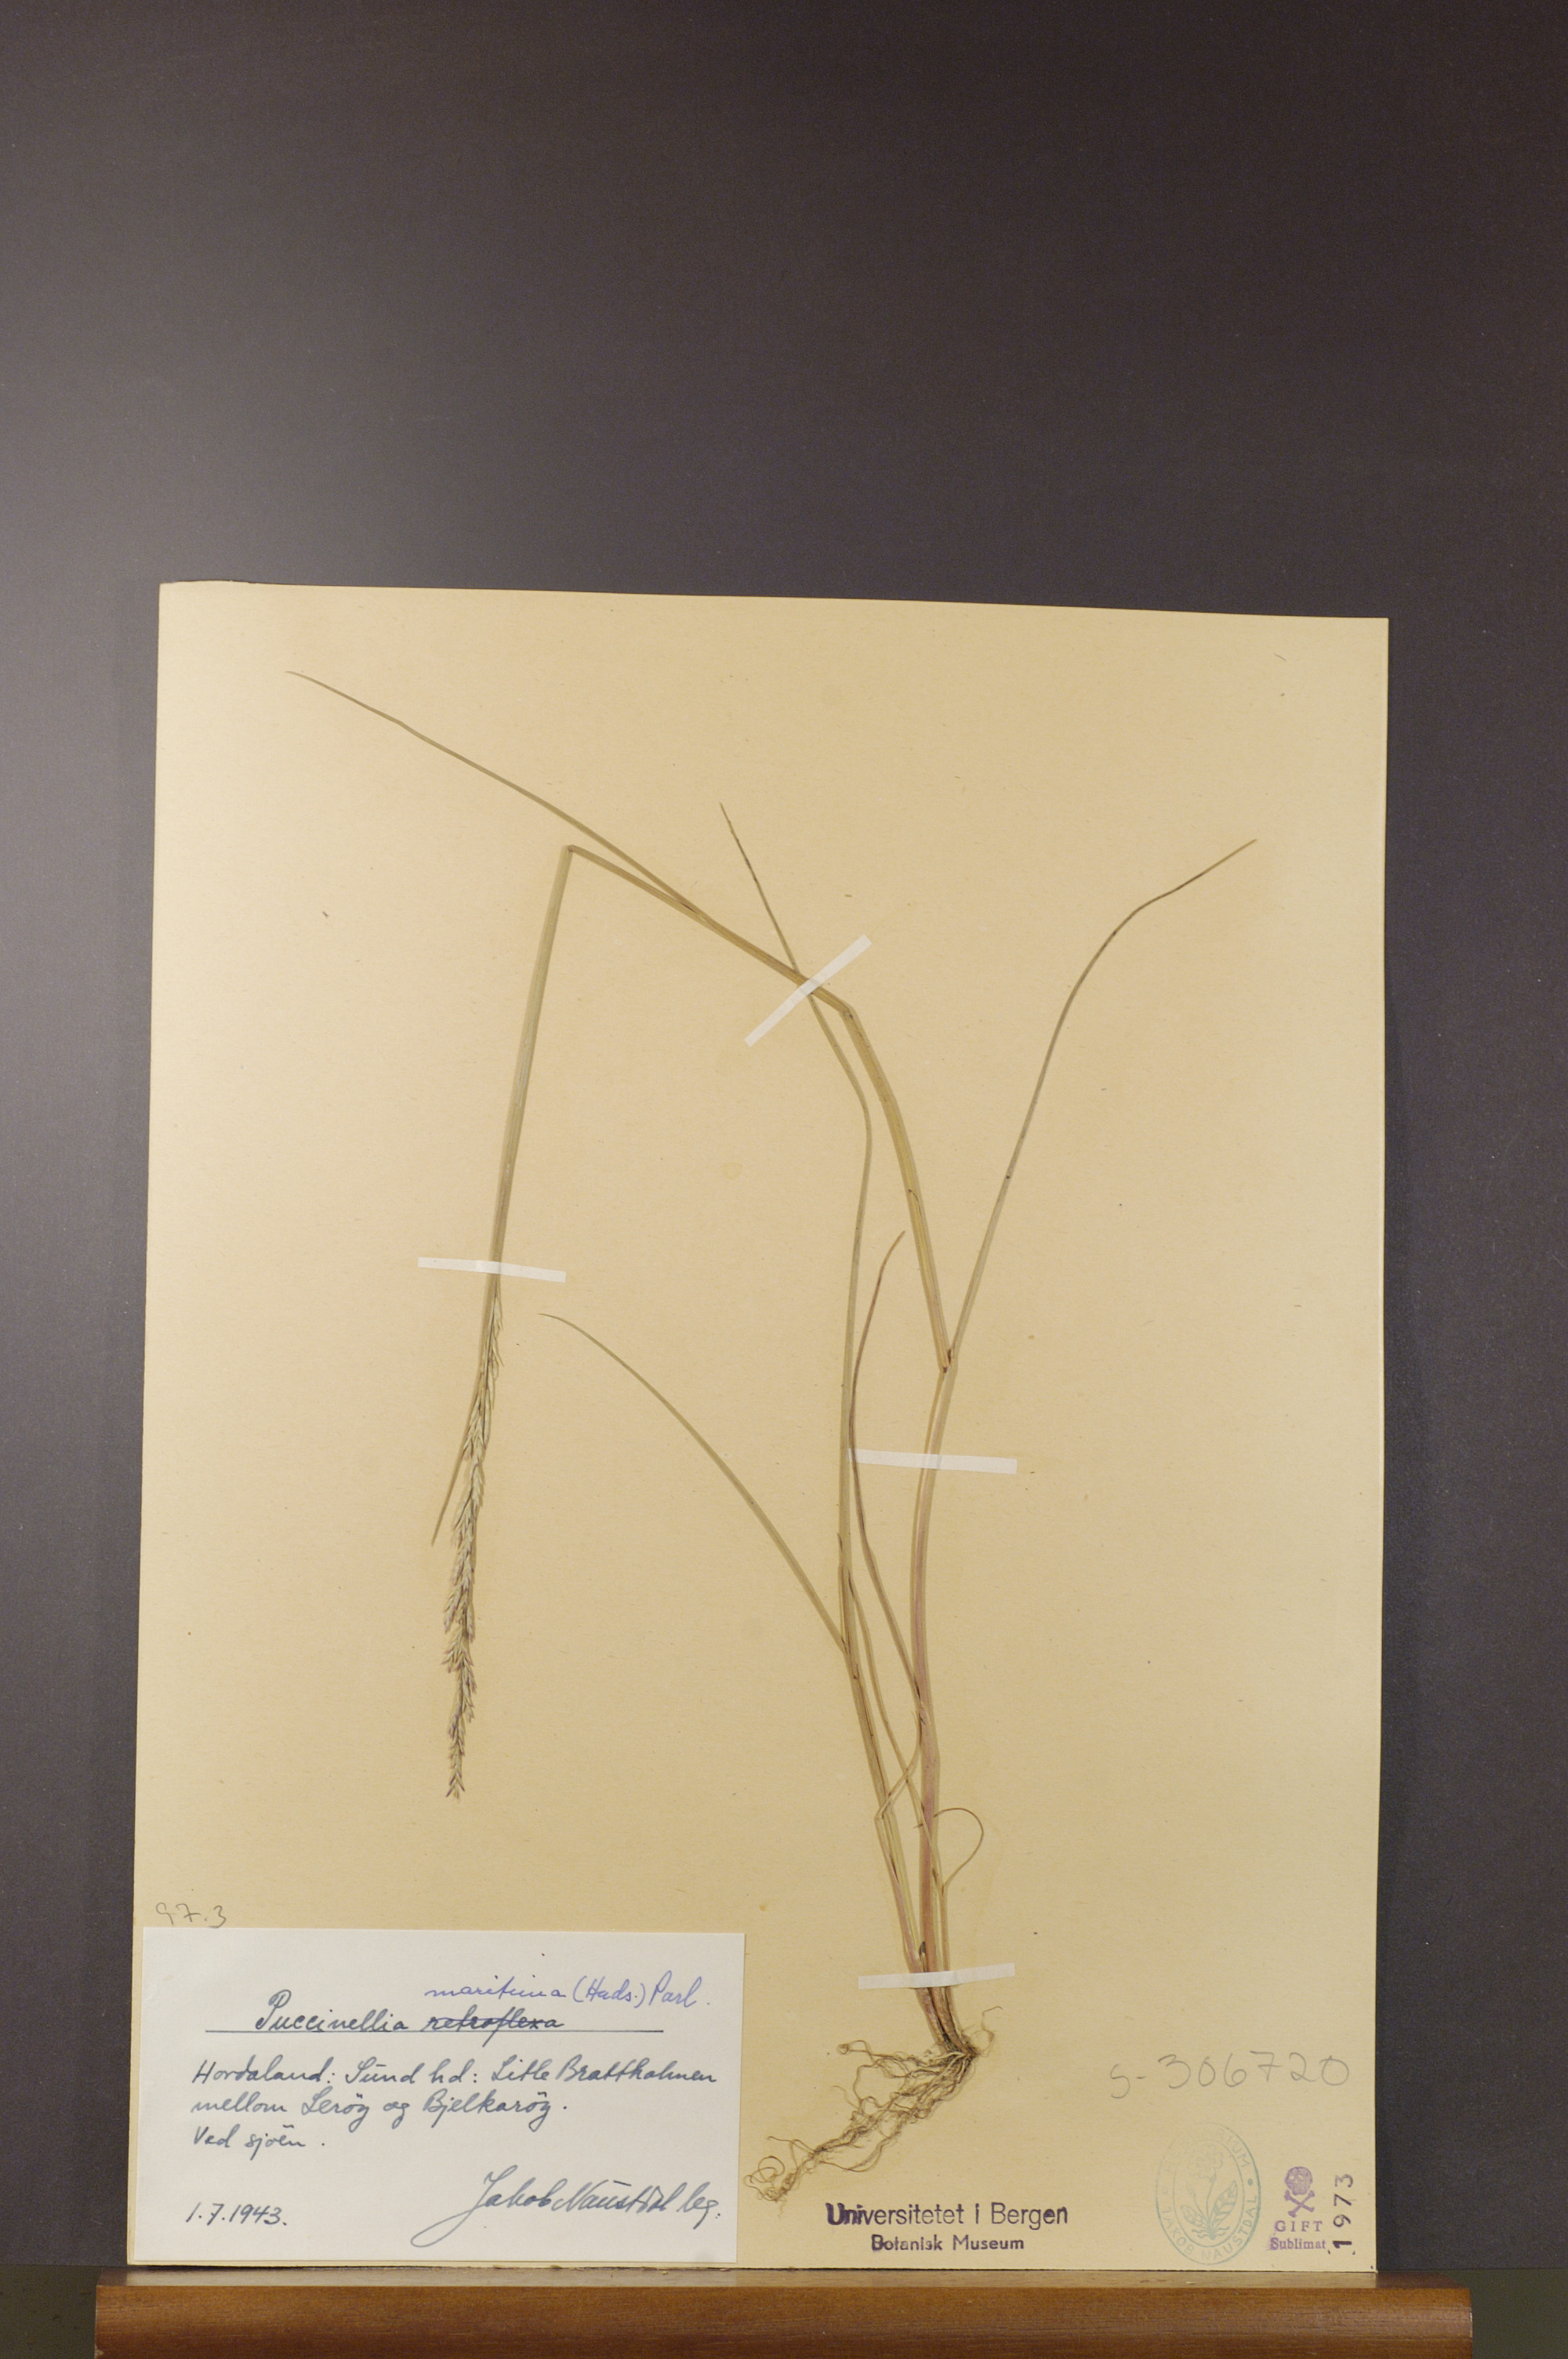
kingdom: Plantae
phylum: Tracheophyta
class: Liliopsida
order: Poales
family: Poaceae
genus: Puccinellia
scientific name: Puccinellia maritima
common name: Common saltmarsh grass
